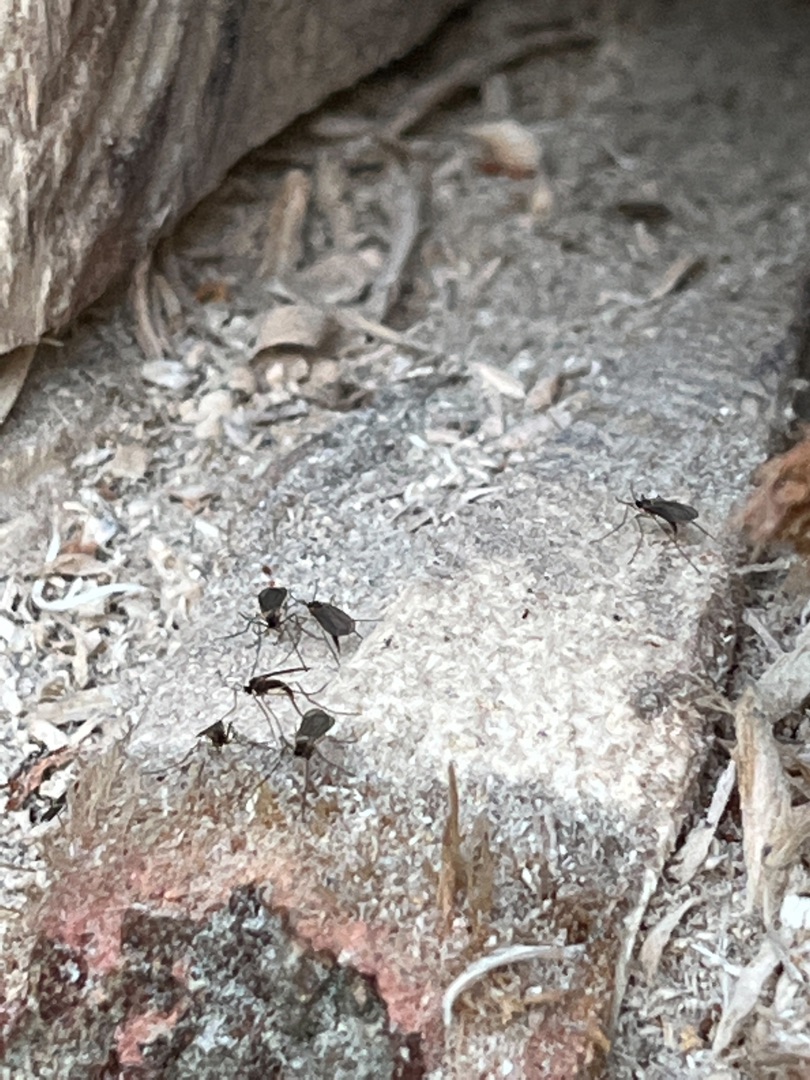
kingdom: Animalia
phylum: Arthropoda
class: Insecta
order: Diptera
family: Cecidomyiidae
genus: Xylodiplosis
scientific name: Xylodiplosis nigritarsis
